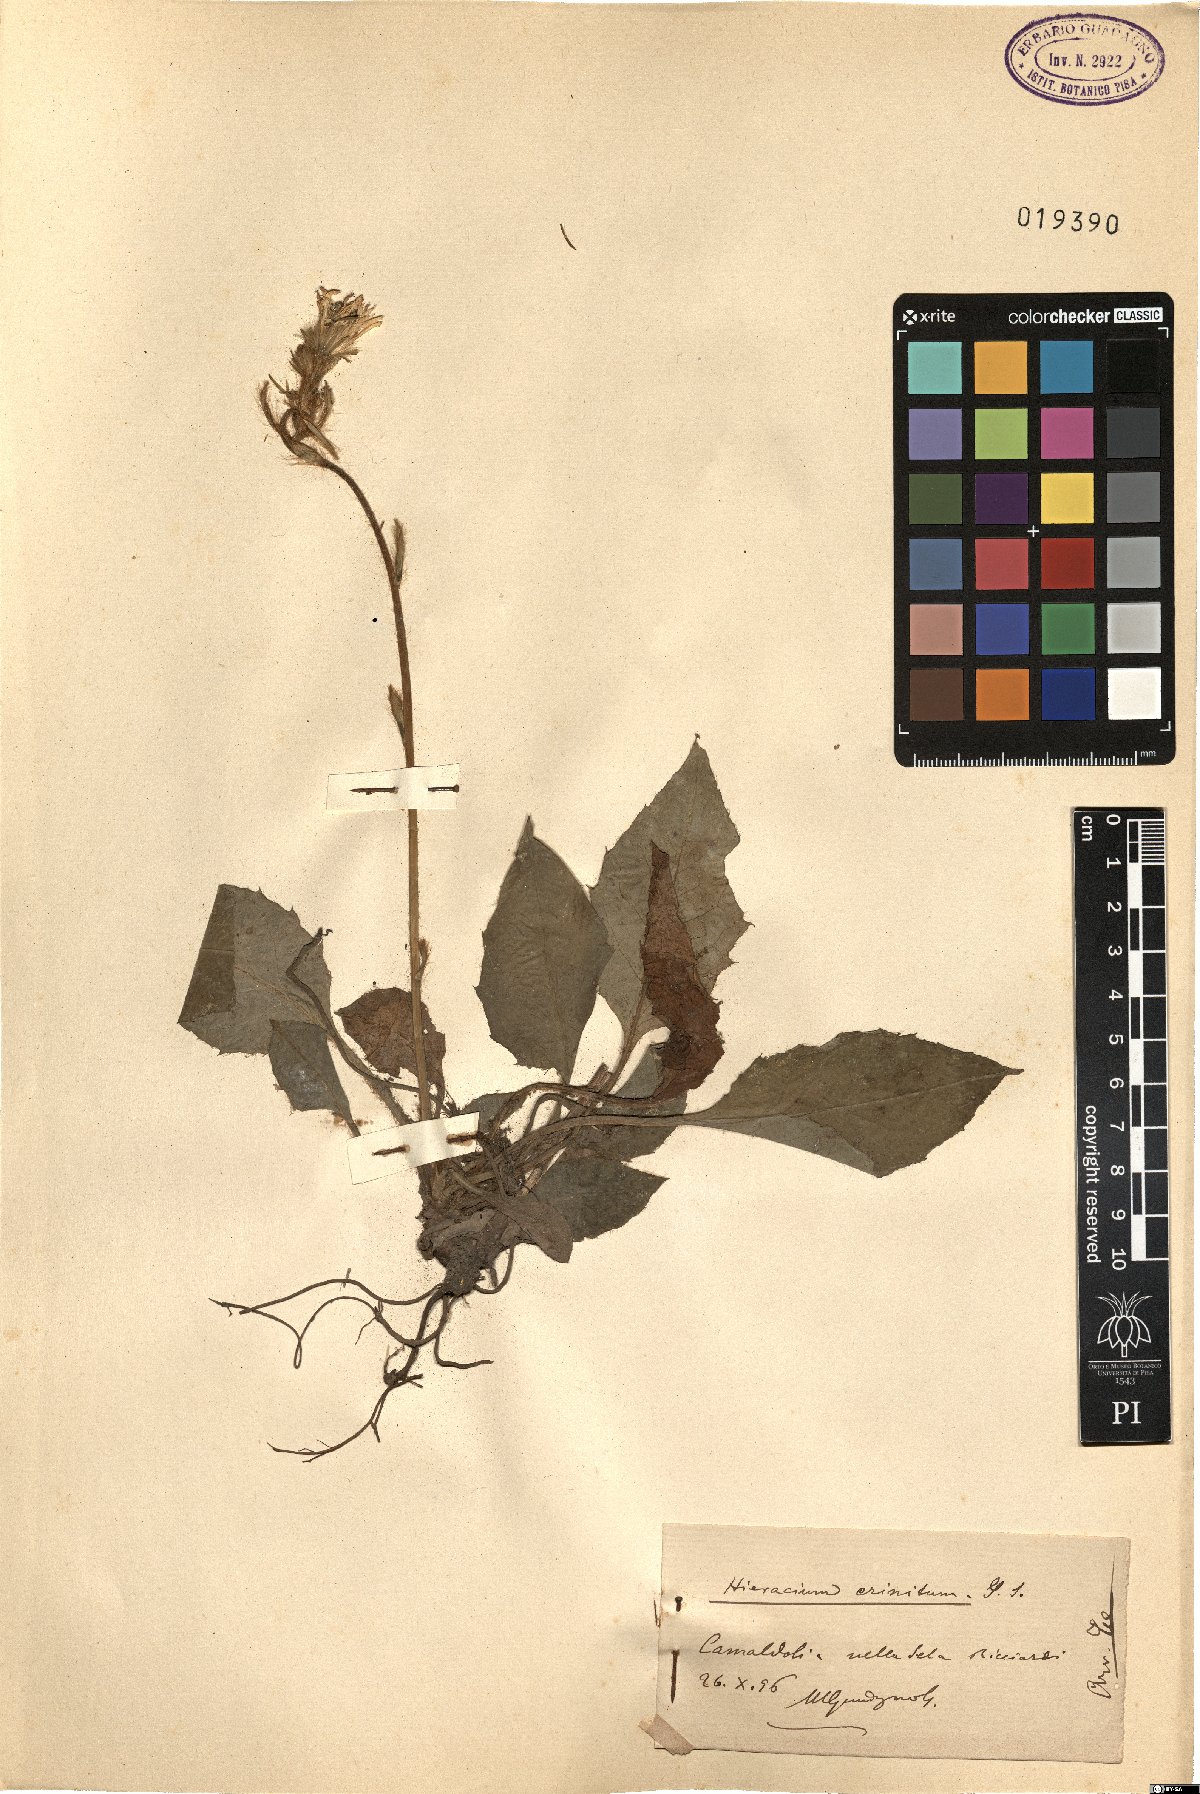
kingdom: Plantae
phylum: Tracheophyta
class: Magnoliopsida
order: Asterales
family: Asteraceae
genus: Hieracium
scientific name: Hieracium racemosum
